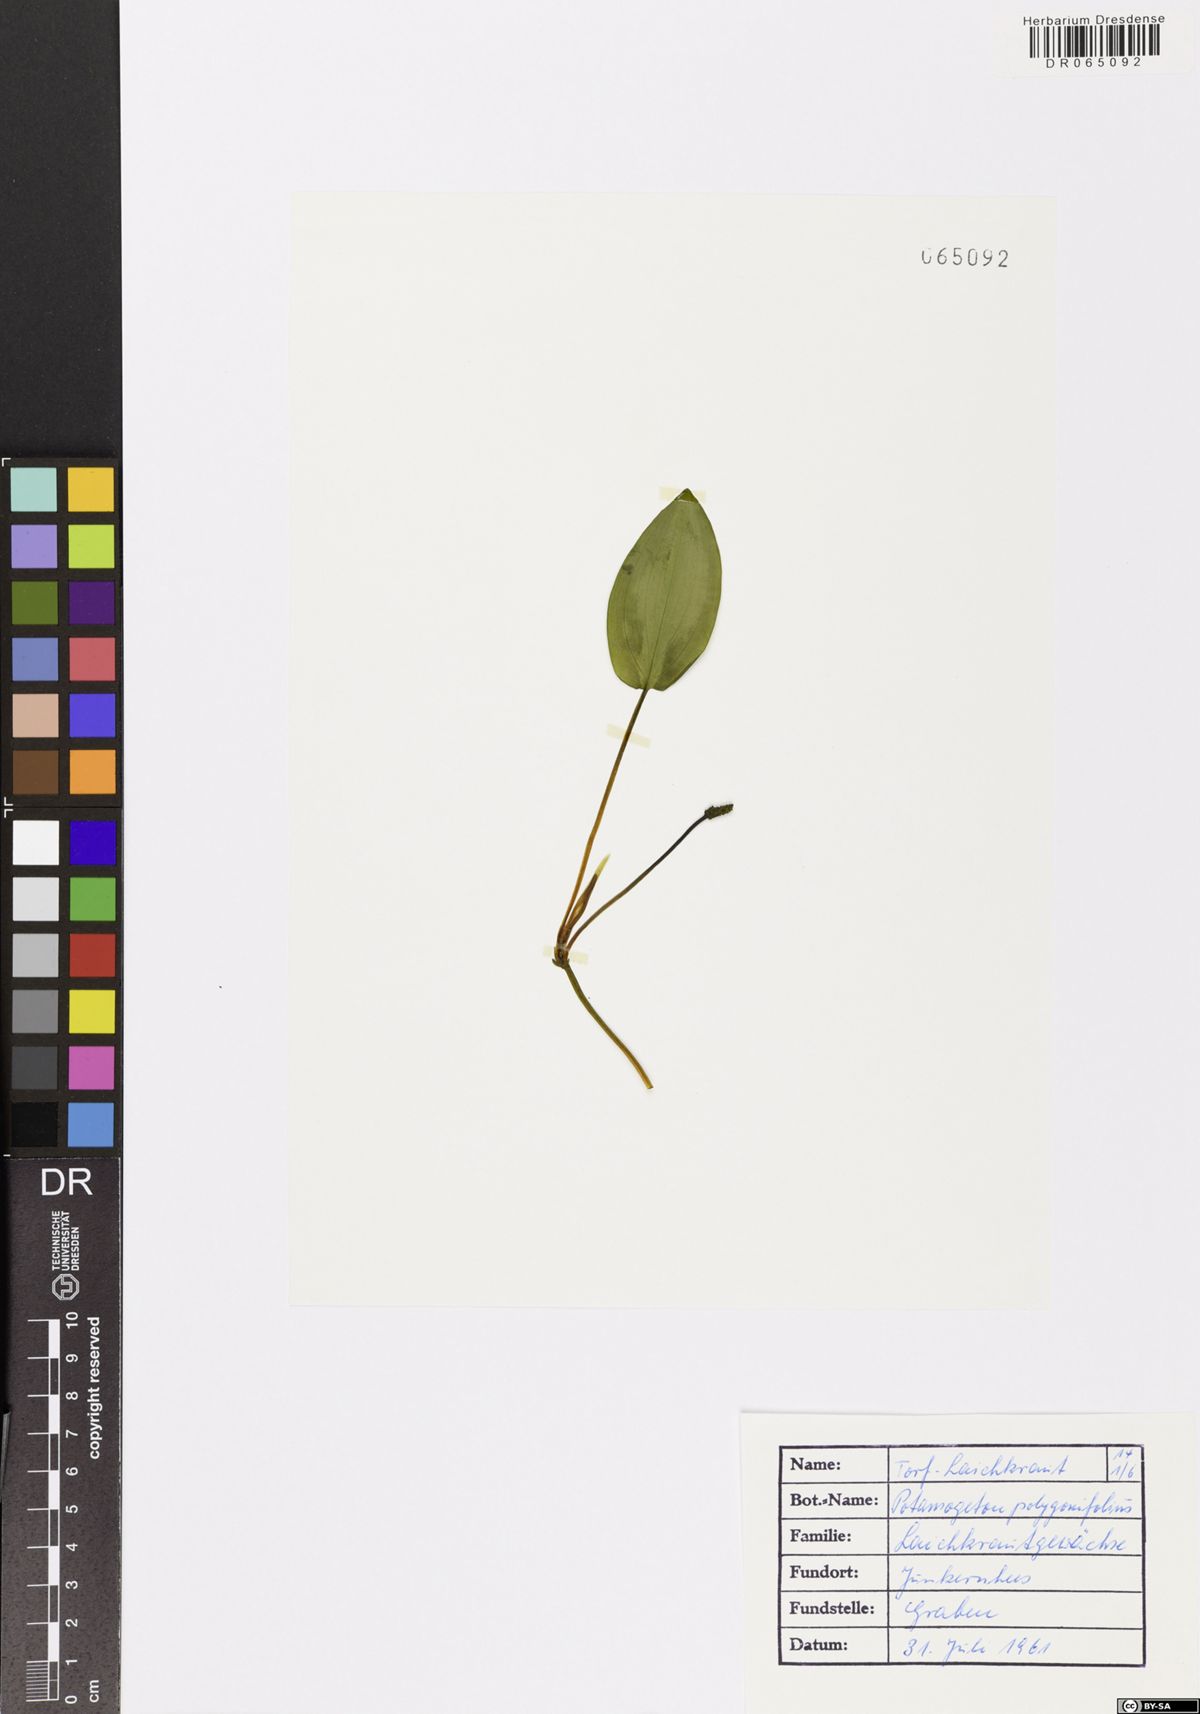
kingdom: Plantae
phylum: Tracheophyta
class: Liliopsida
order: Alismatales
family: Potamogetonaceae
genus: Potamogeton
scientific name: Potamogeton polygonifolius
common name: Bog pondweed
